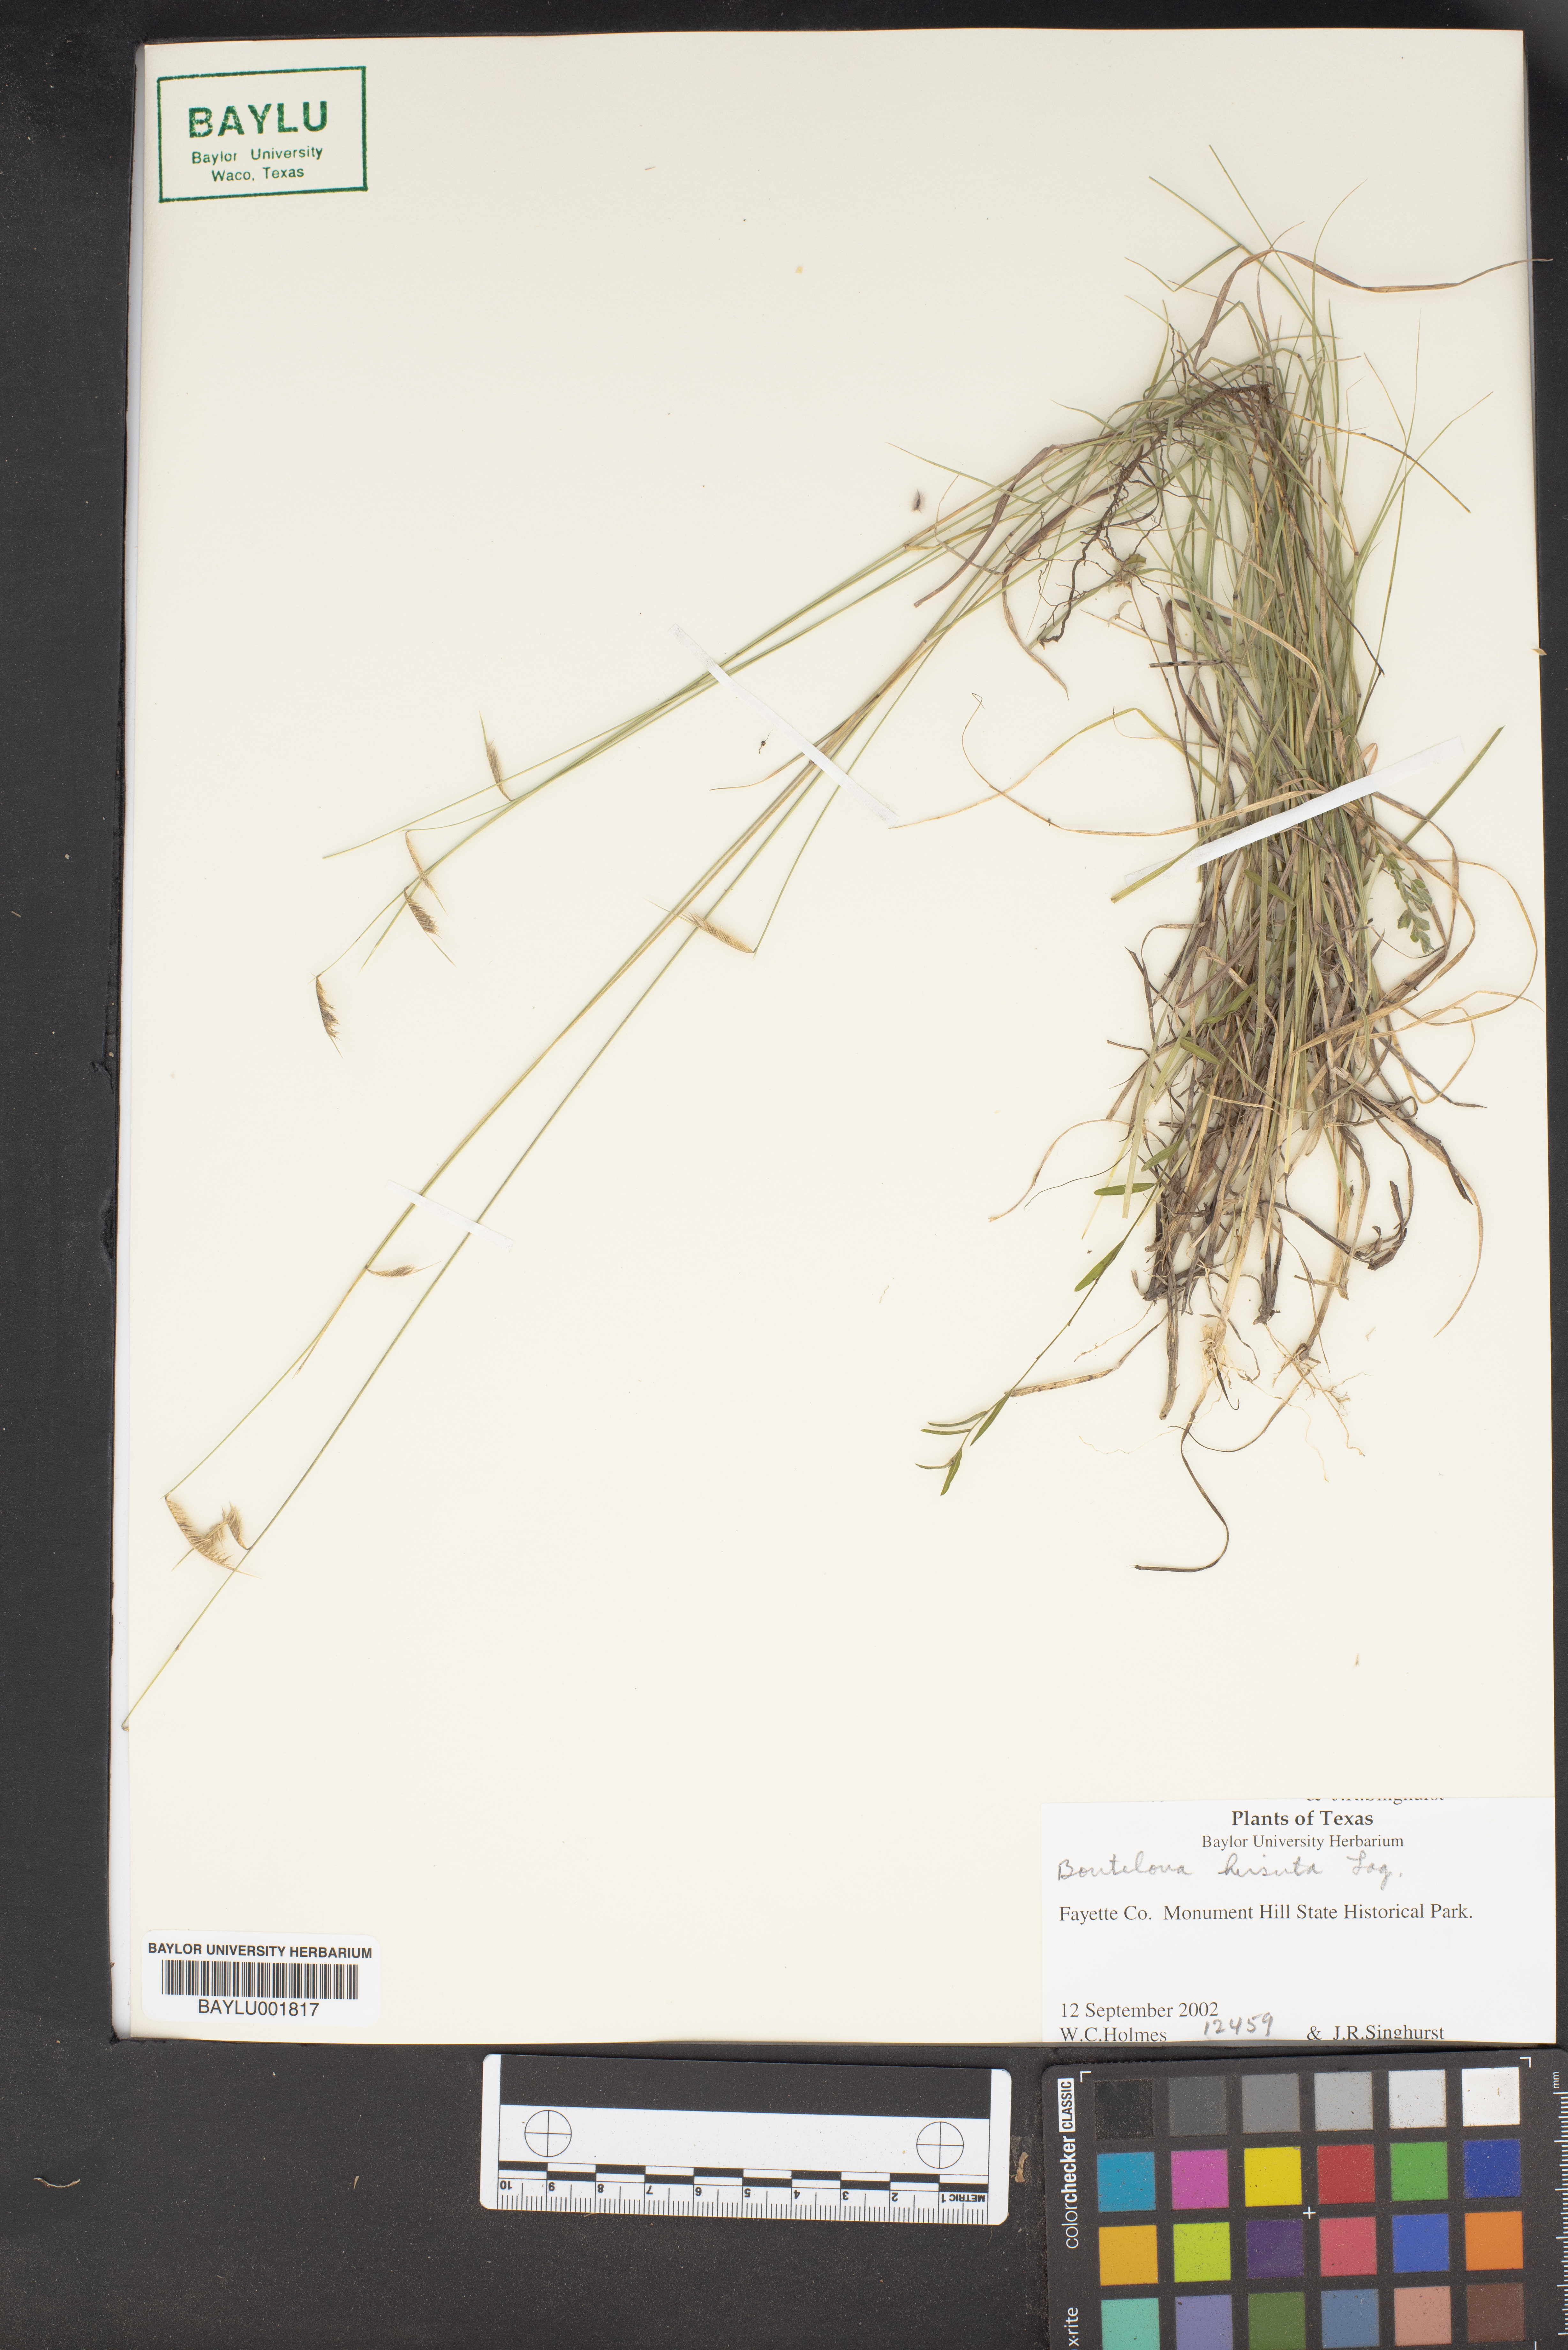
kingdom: Plantae
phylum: Tracheophyta
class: Liliopsida
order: Poales
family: Poaceae
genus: Bouteloua
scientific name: Bouteloua hirsuta
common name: Hairy grama
